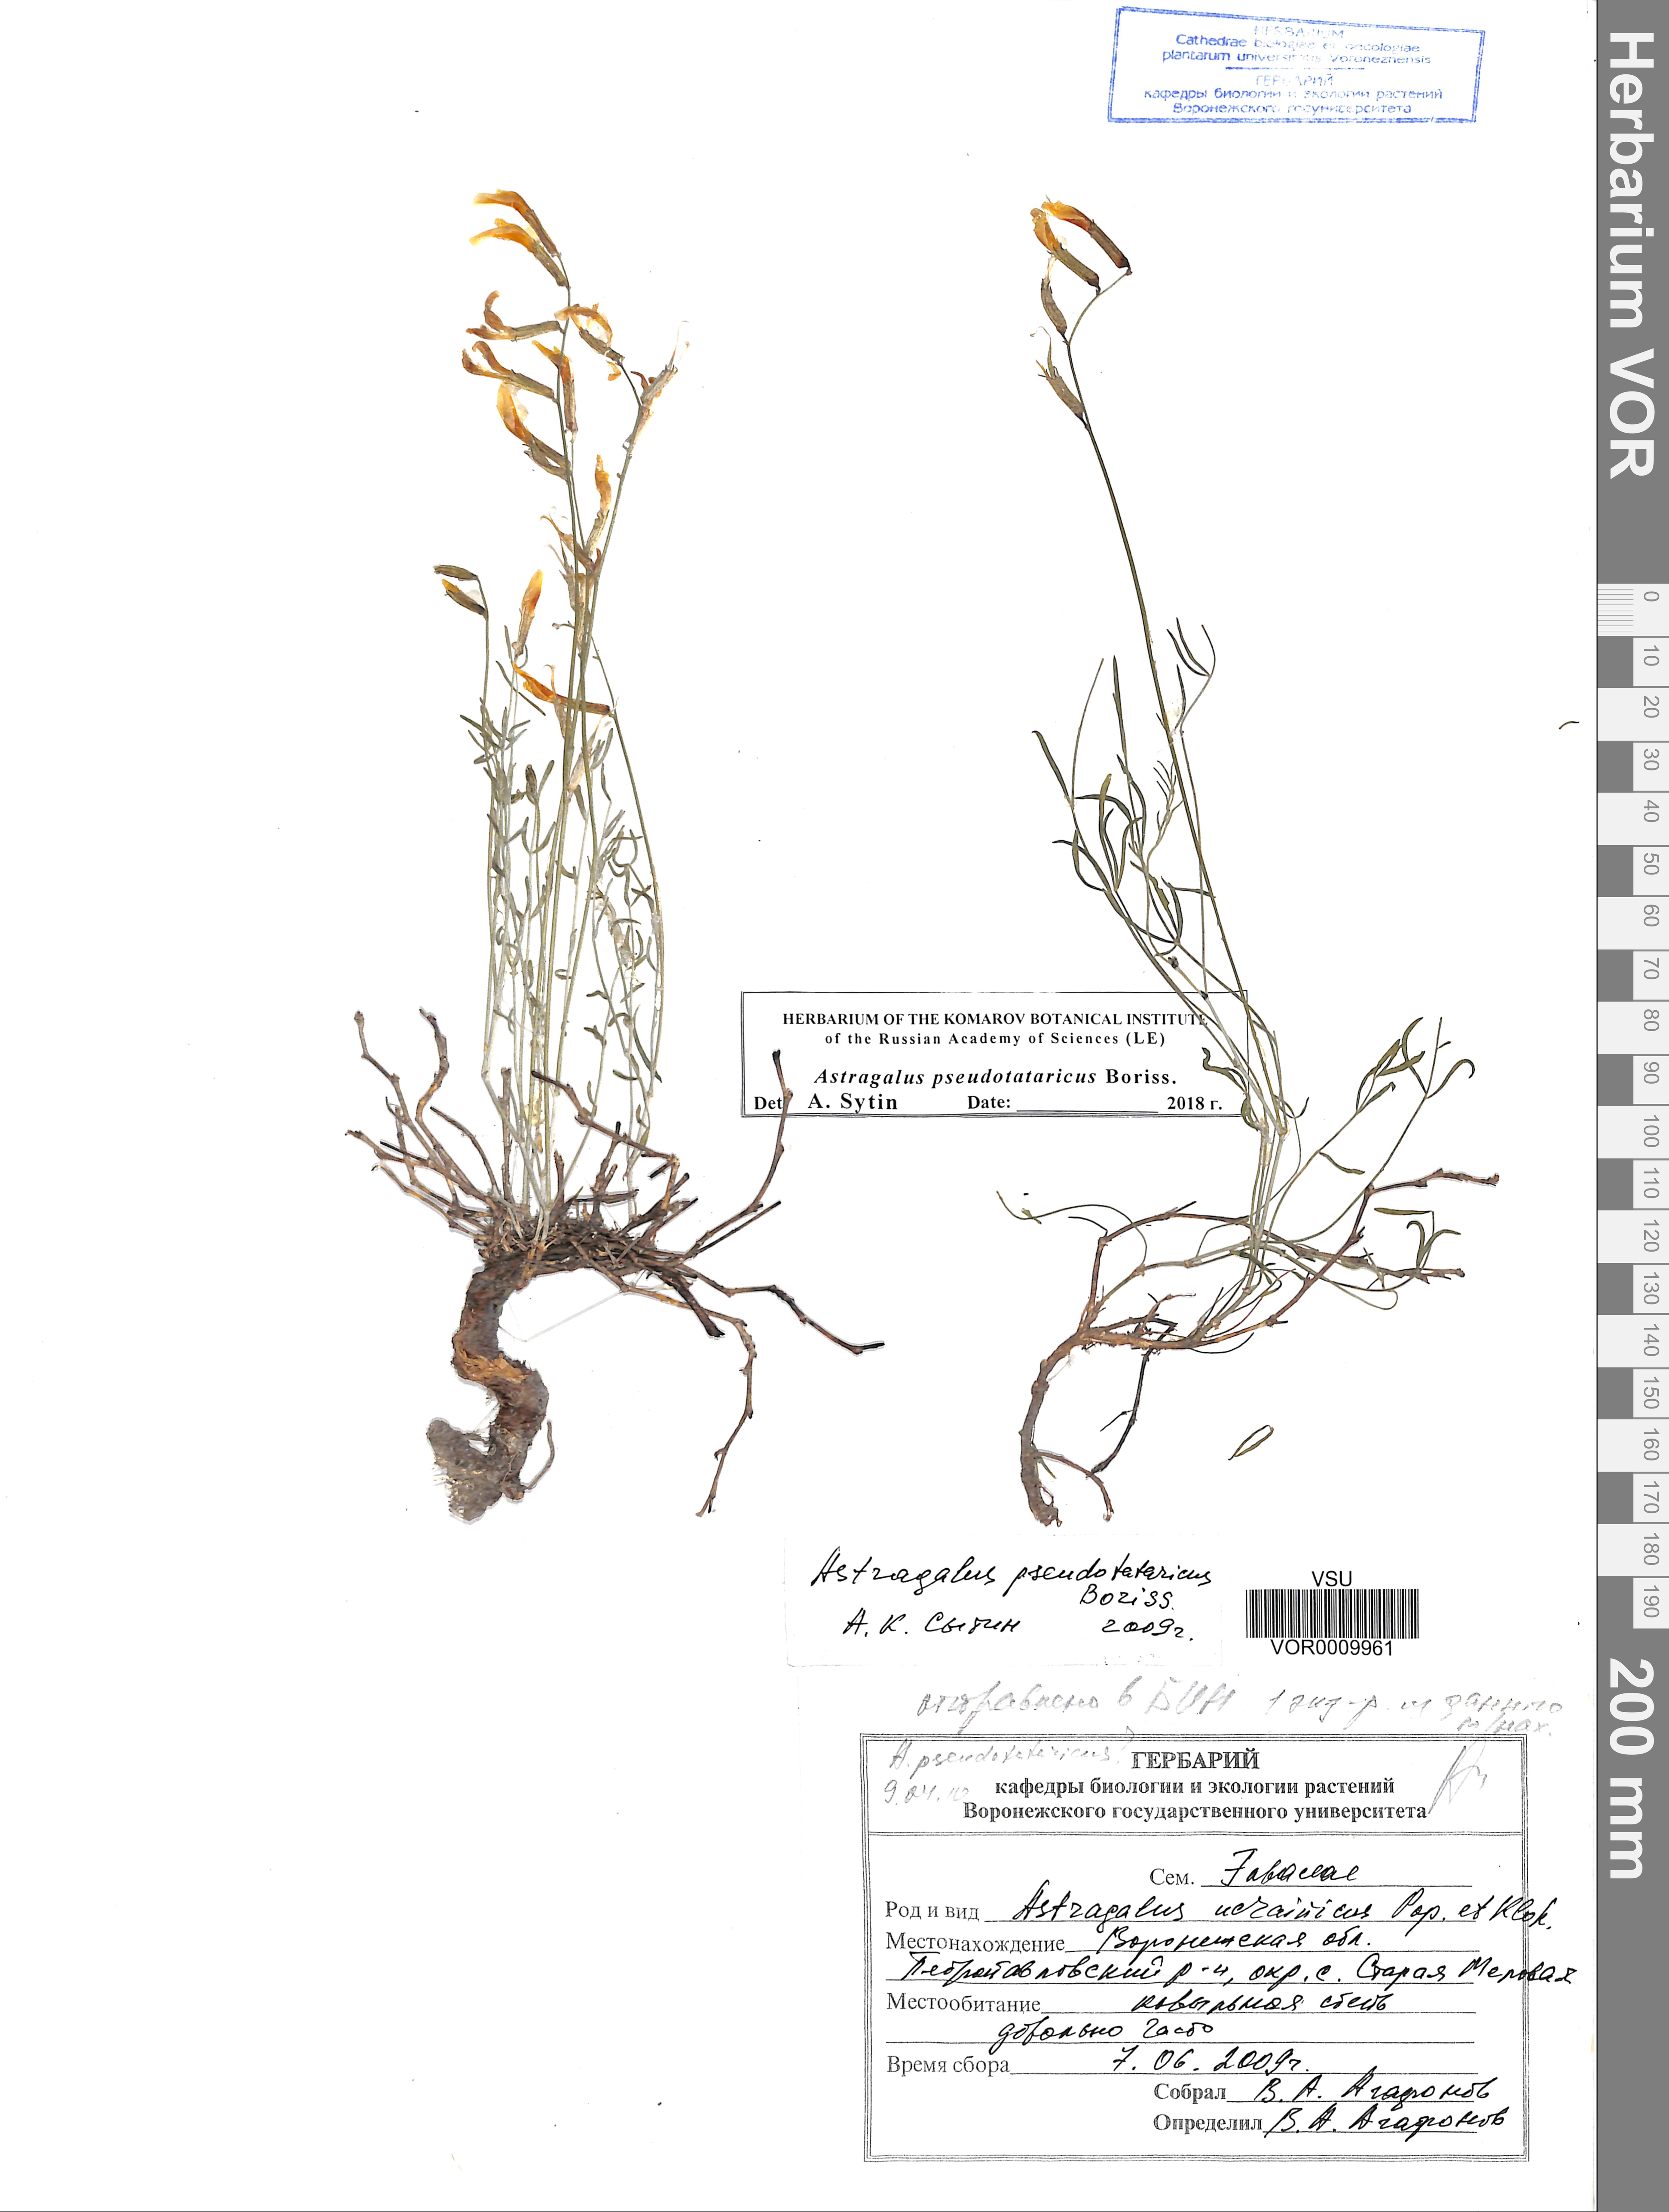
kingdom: Plantae
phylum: Tracheophyta
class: Magnoliopsida
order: Fabales
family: Fabaceae
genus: Astragalus
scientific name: Astragalus pseudotataricus
